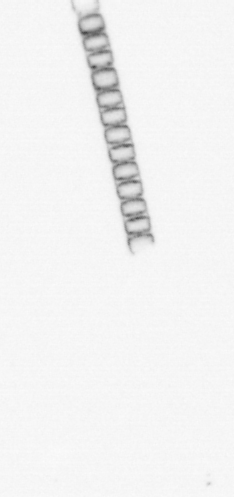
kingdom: Chromista
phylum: Ochrophyta
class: Bacillariophyceae
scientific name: Bacillariophyceae
